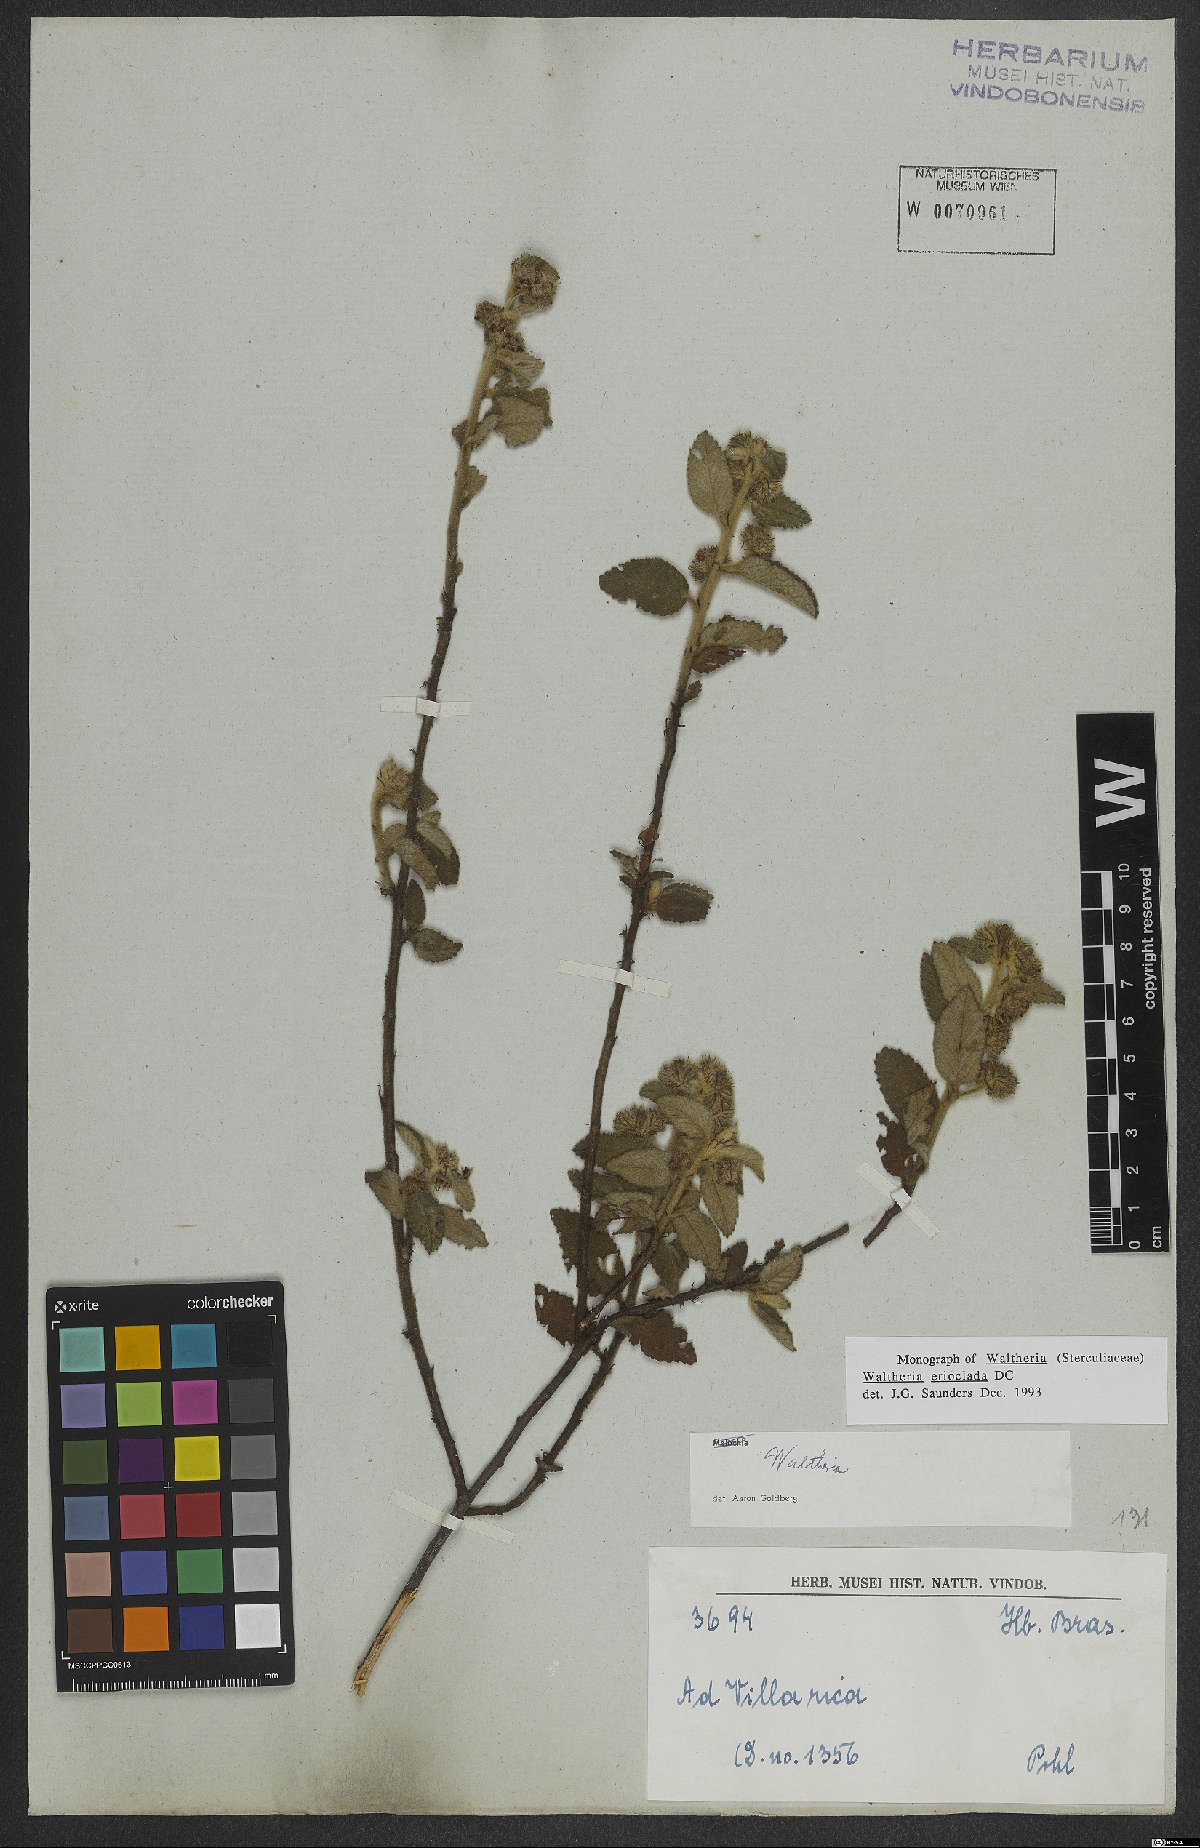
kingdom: Plantae
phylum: Tracheophyta
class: Magnoliopsida
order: Malvales
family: Malvaceae
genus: Waltheria
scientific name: Waltheria indica
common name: Leather-coat
